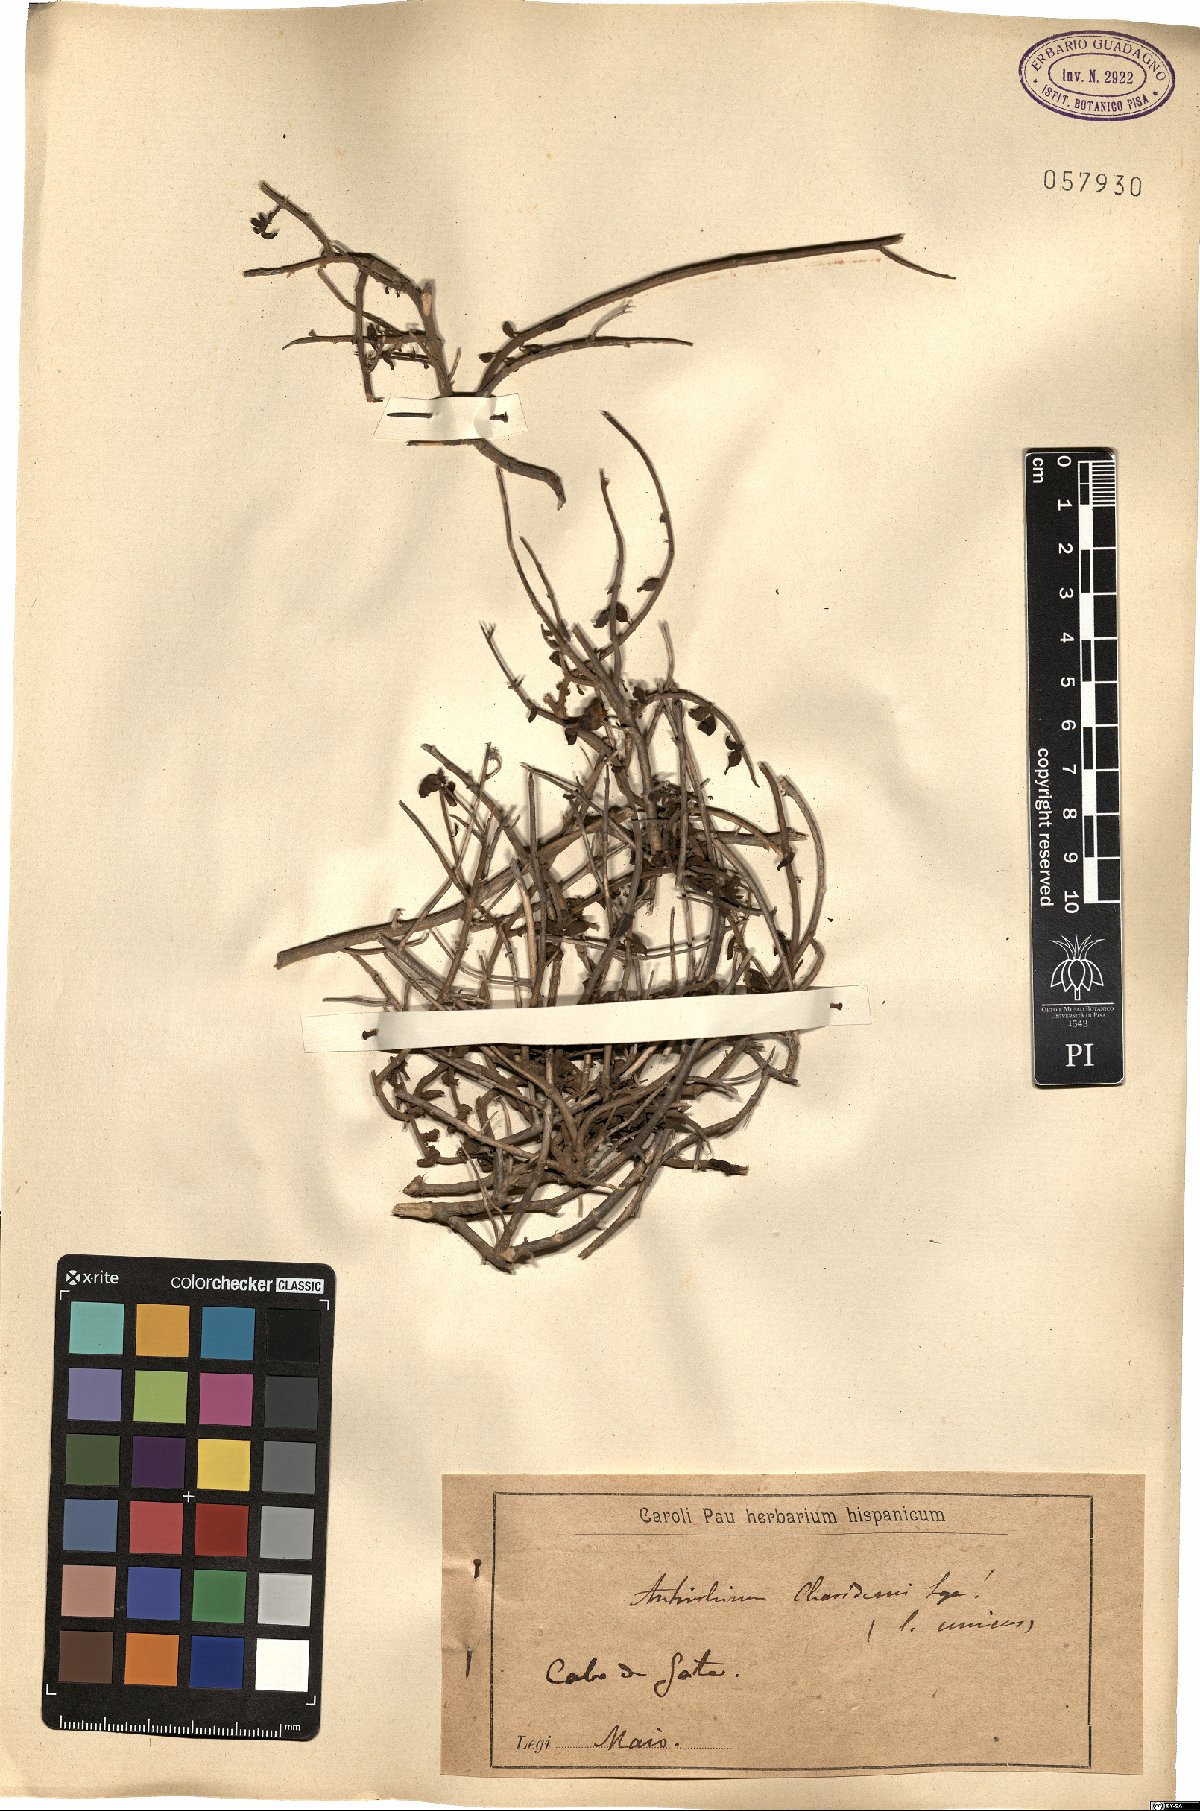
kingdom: Plantae
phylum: Tracheophyta
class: Magnoliopsida
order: Lamiales
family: Plantaginaceae
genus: Antirrhinum
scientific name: Antirrhinum charidemi
